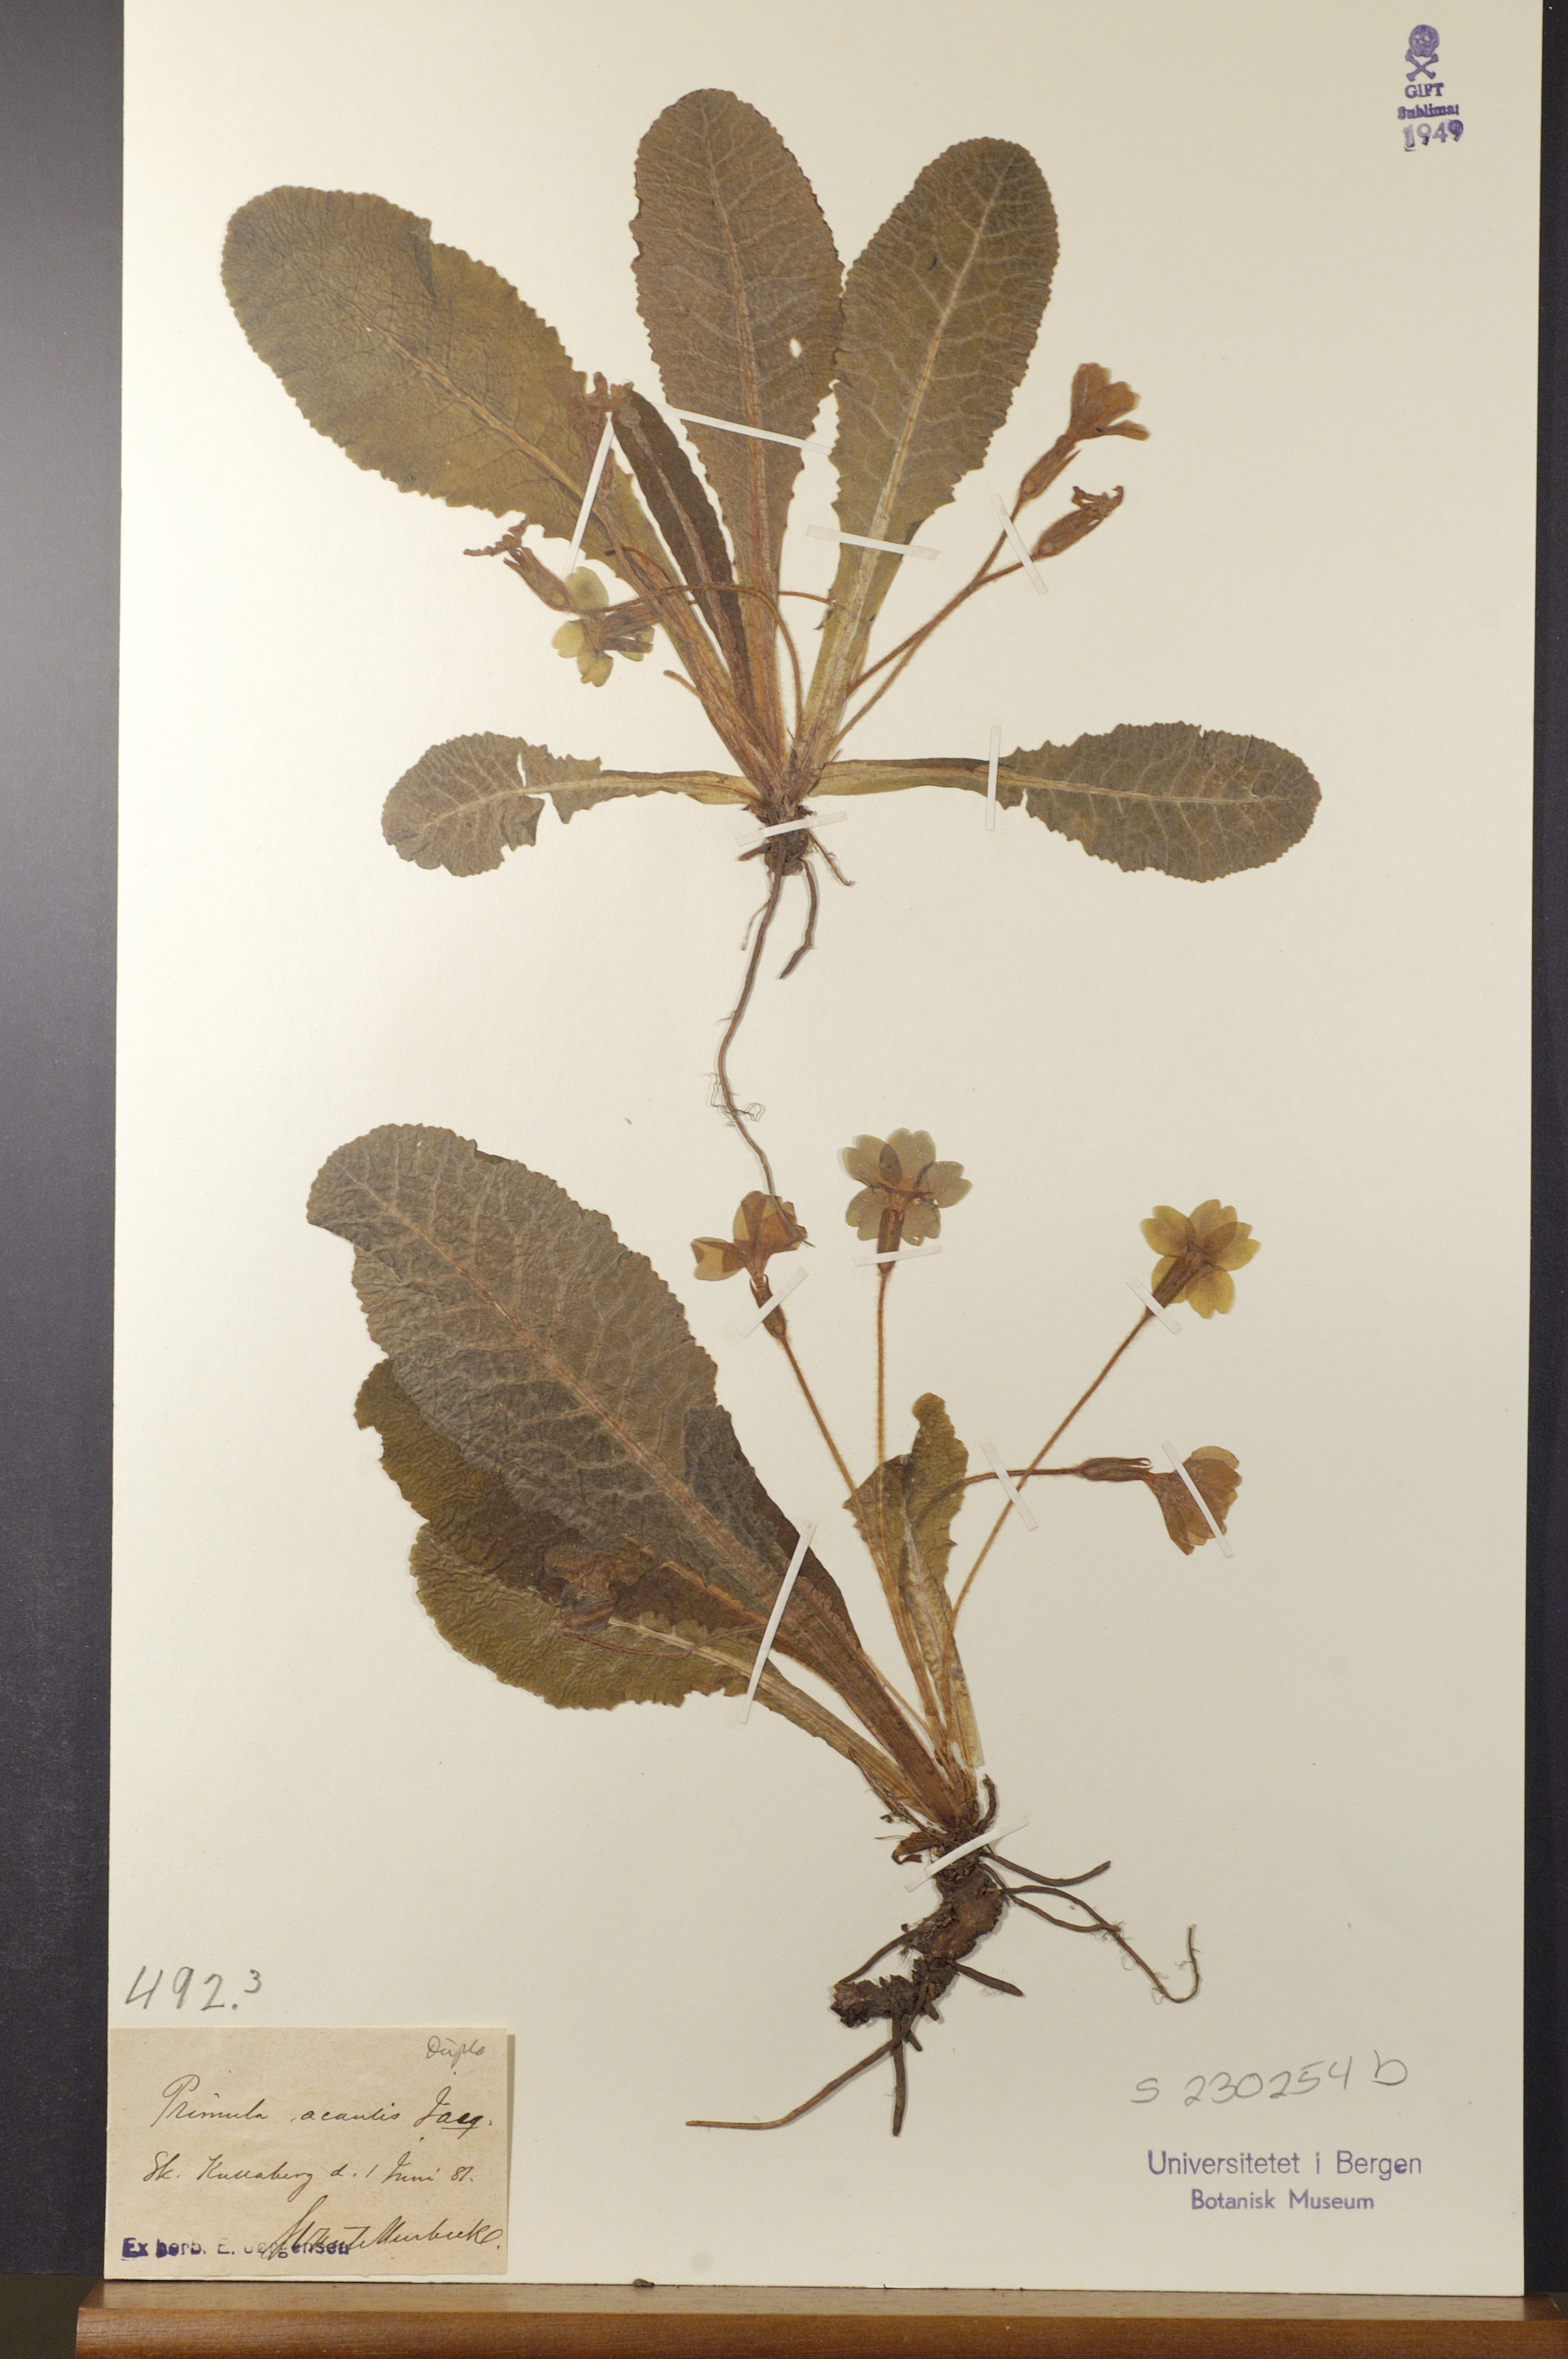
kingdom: Plantae
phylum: Tracheophyta
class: Magnoliopsida
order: Ericales
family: Primulaceae
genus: Primula
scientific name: Primula vulgaris
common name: Primrose
